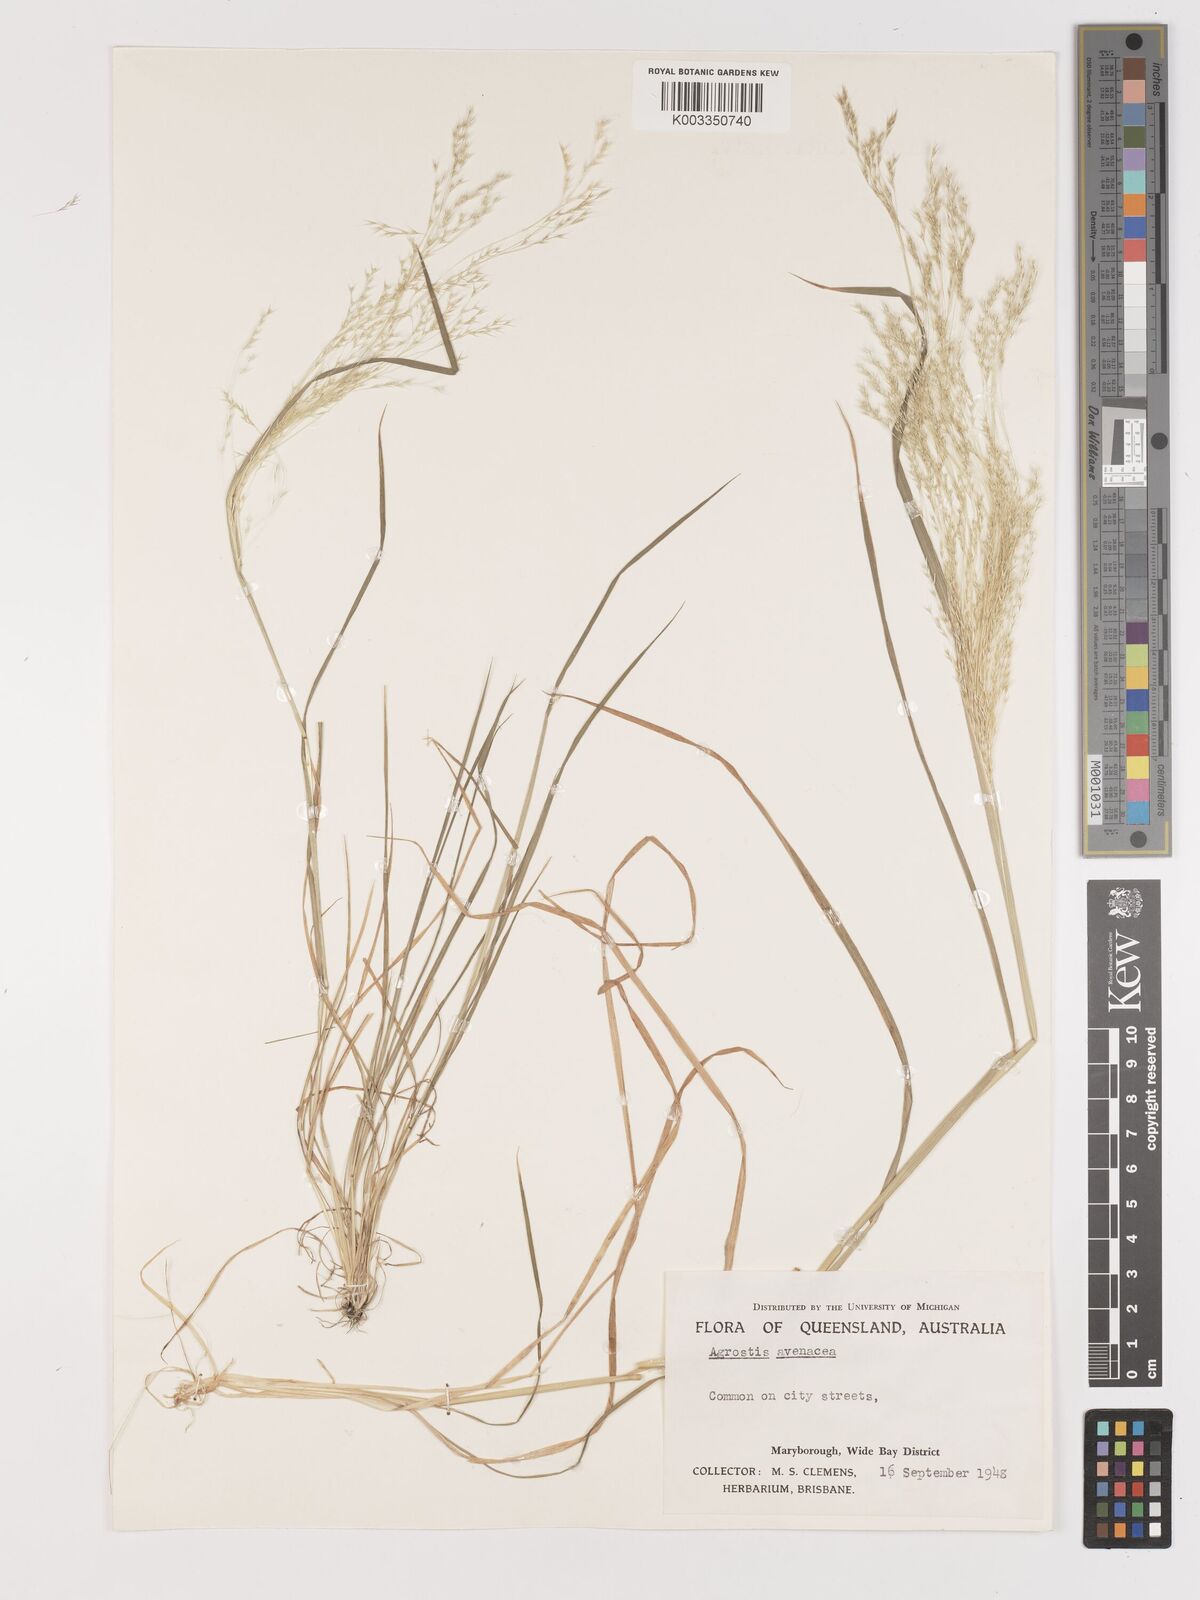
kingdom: Plantae
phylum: Tracheophyta
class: Liliopsida
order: Poales
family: Poaceae
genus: Lachnagrostis
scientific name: Lachnagrostis filiformis
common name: Bentgrass
